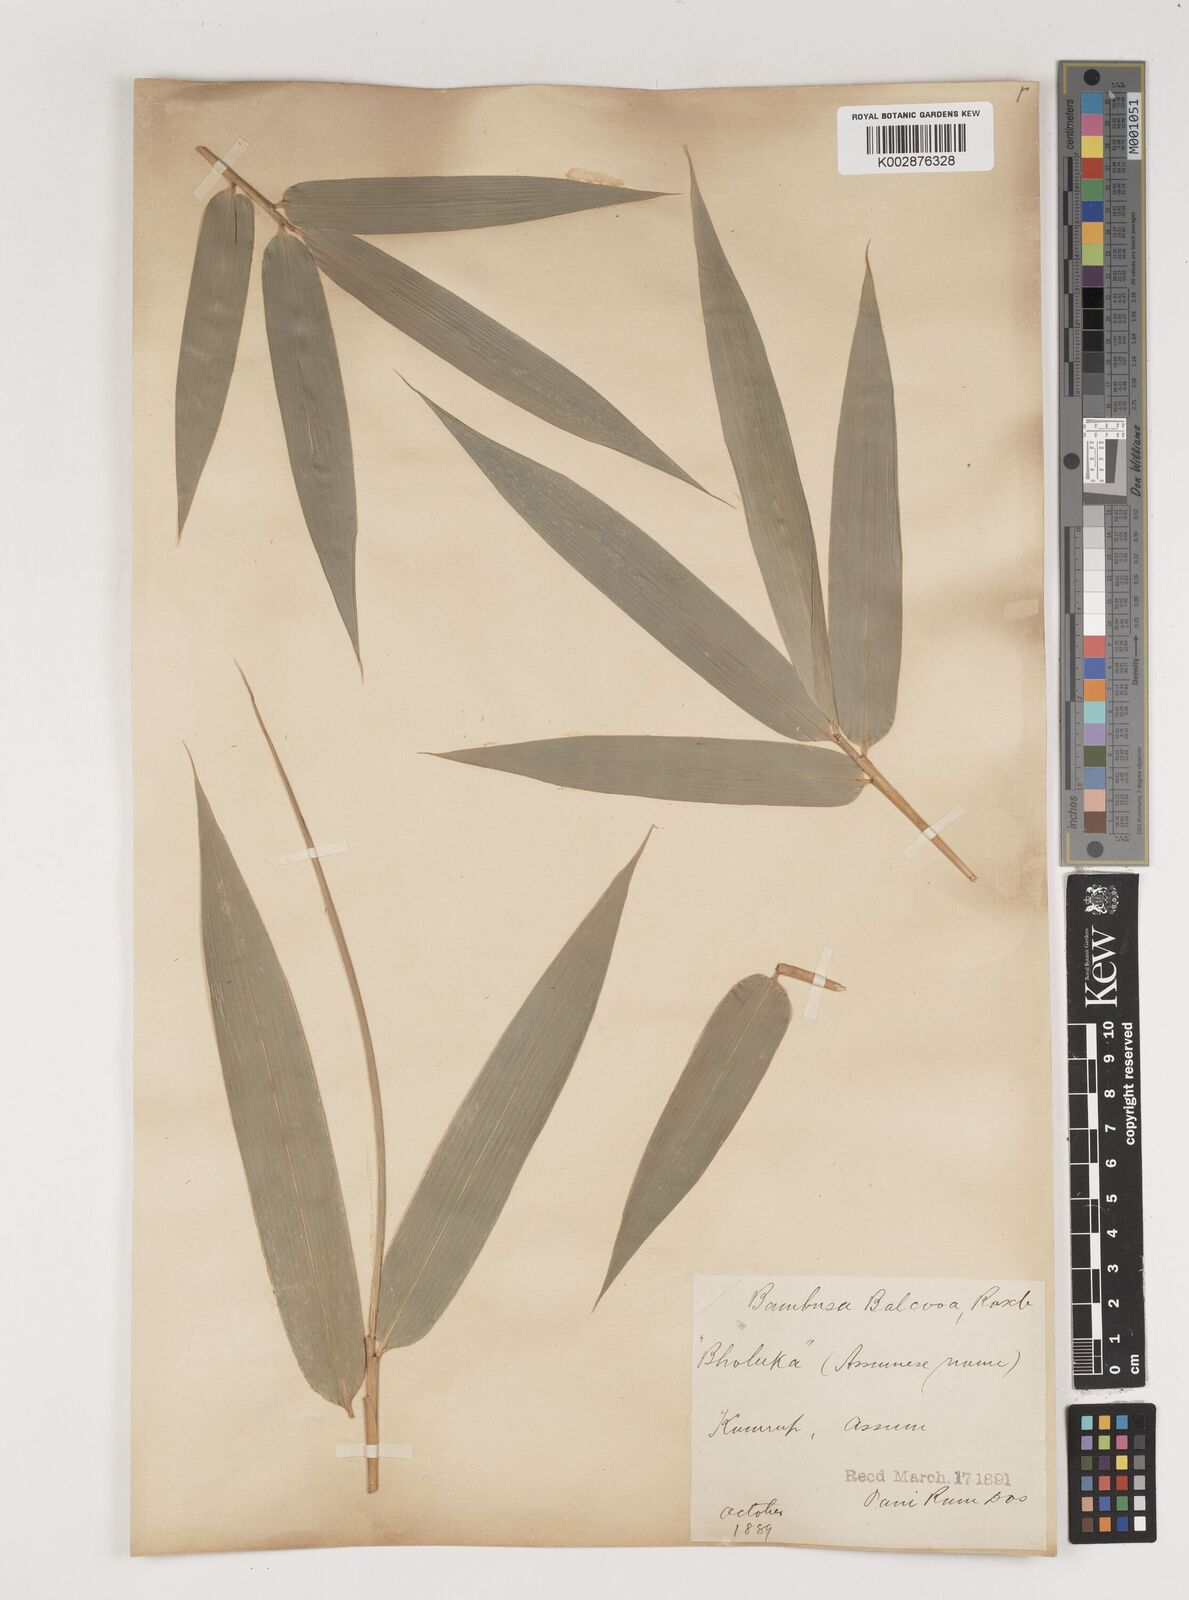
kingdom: Plantae
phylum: Tracheophyta
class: Liliopsida
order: Poales
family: Poaceae
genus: Bambusa
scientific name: Bambusa balcooa
